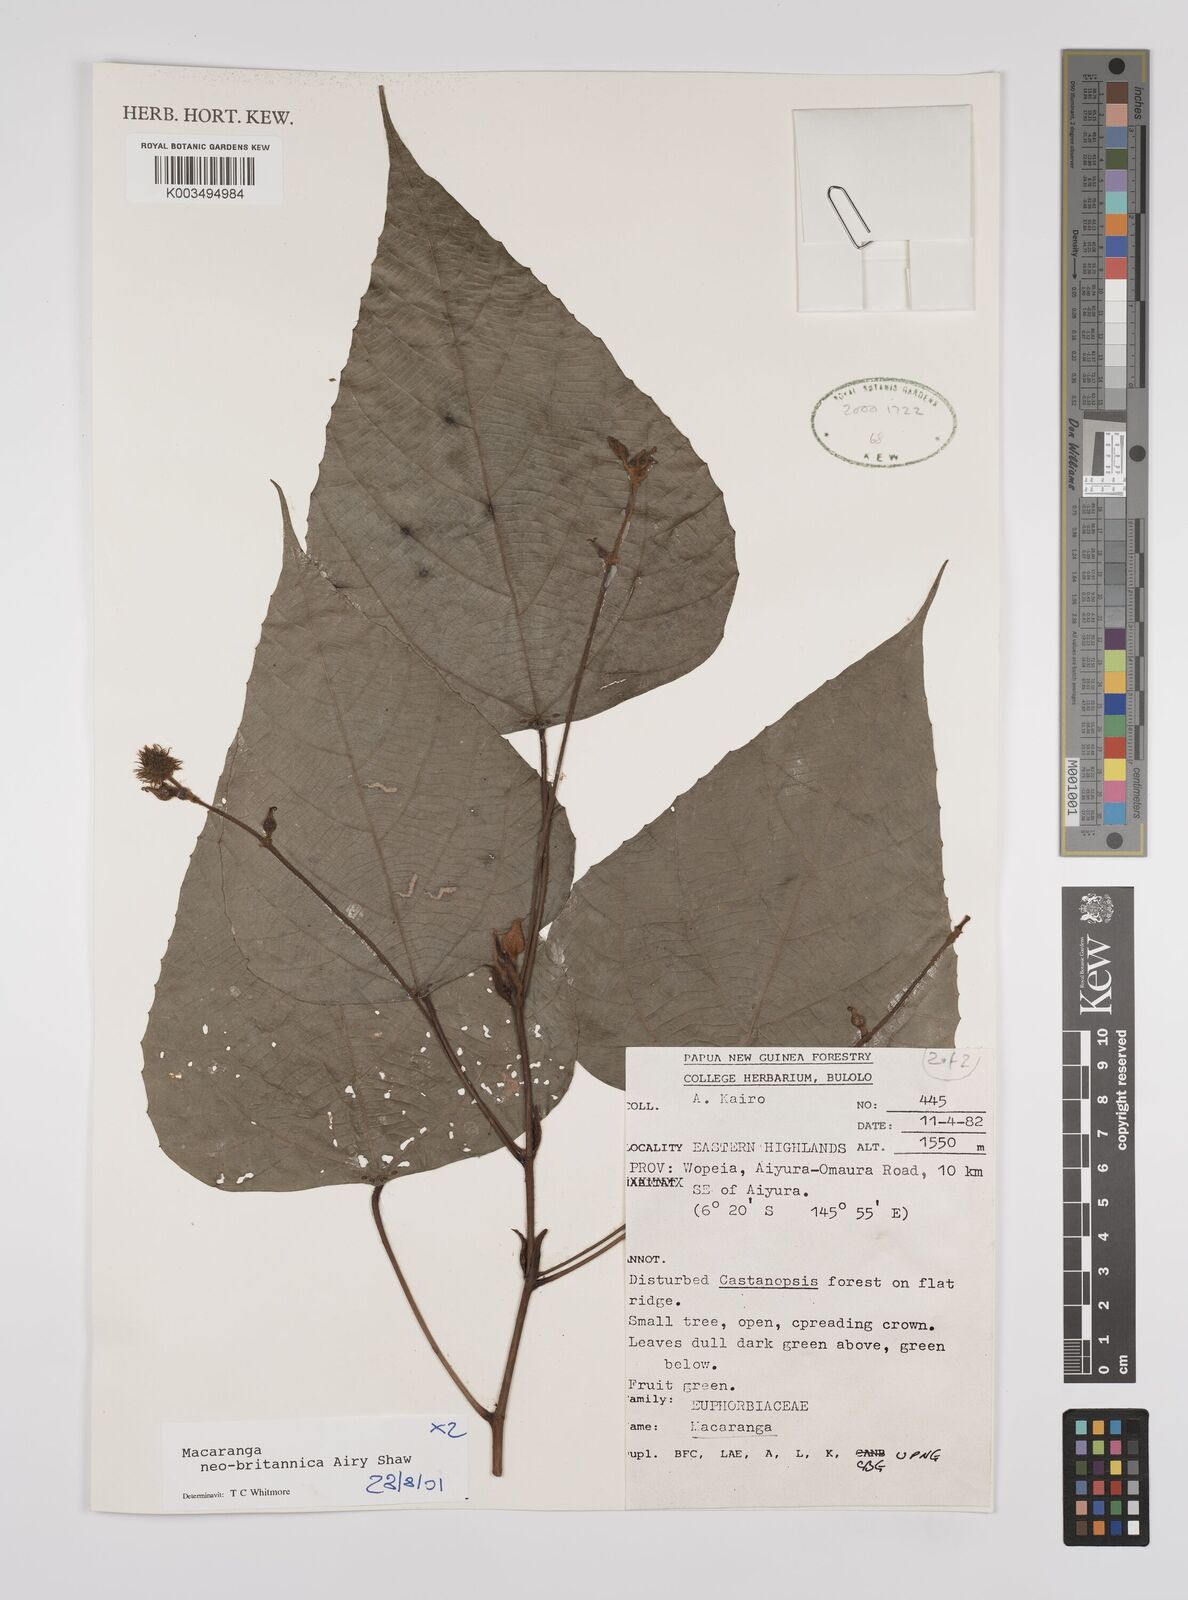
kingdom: Plantae
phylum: Tracheophyta
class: Magnoliopsida
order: Malpighiales
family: Euphorbiaceae
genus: Macaranga
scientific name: Macaranga neobritannica
